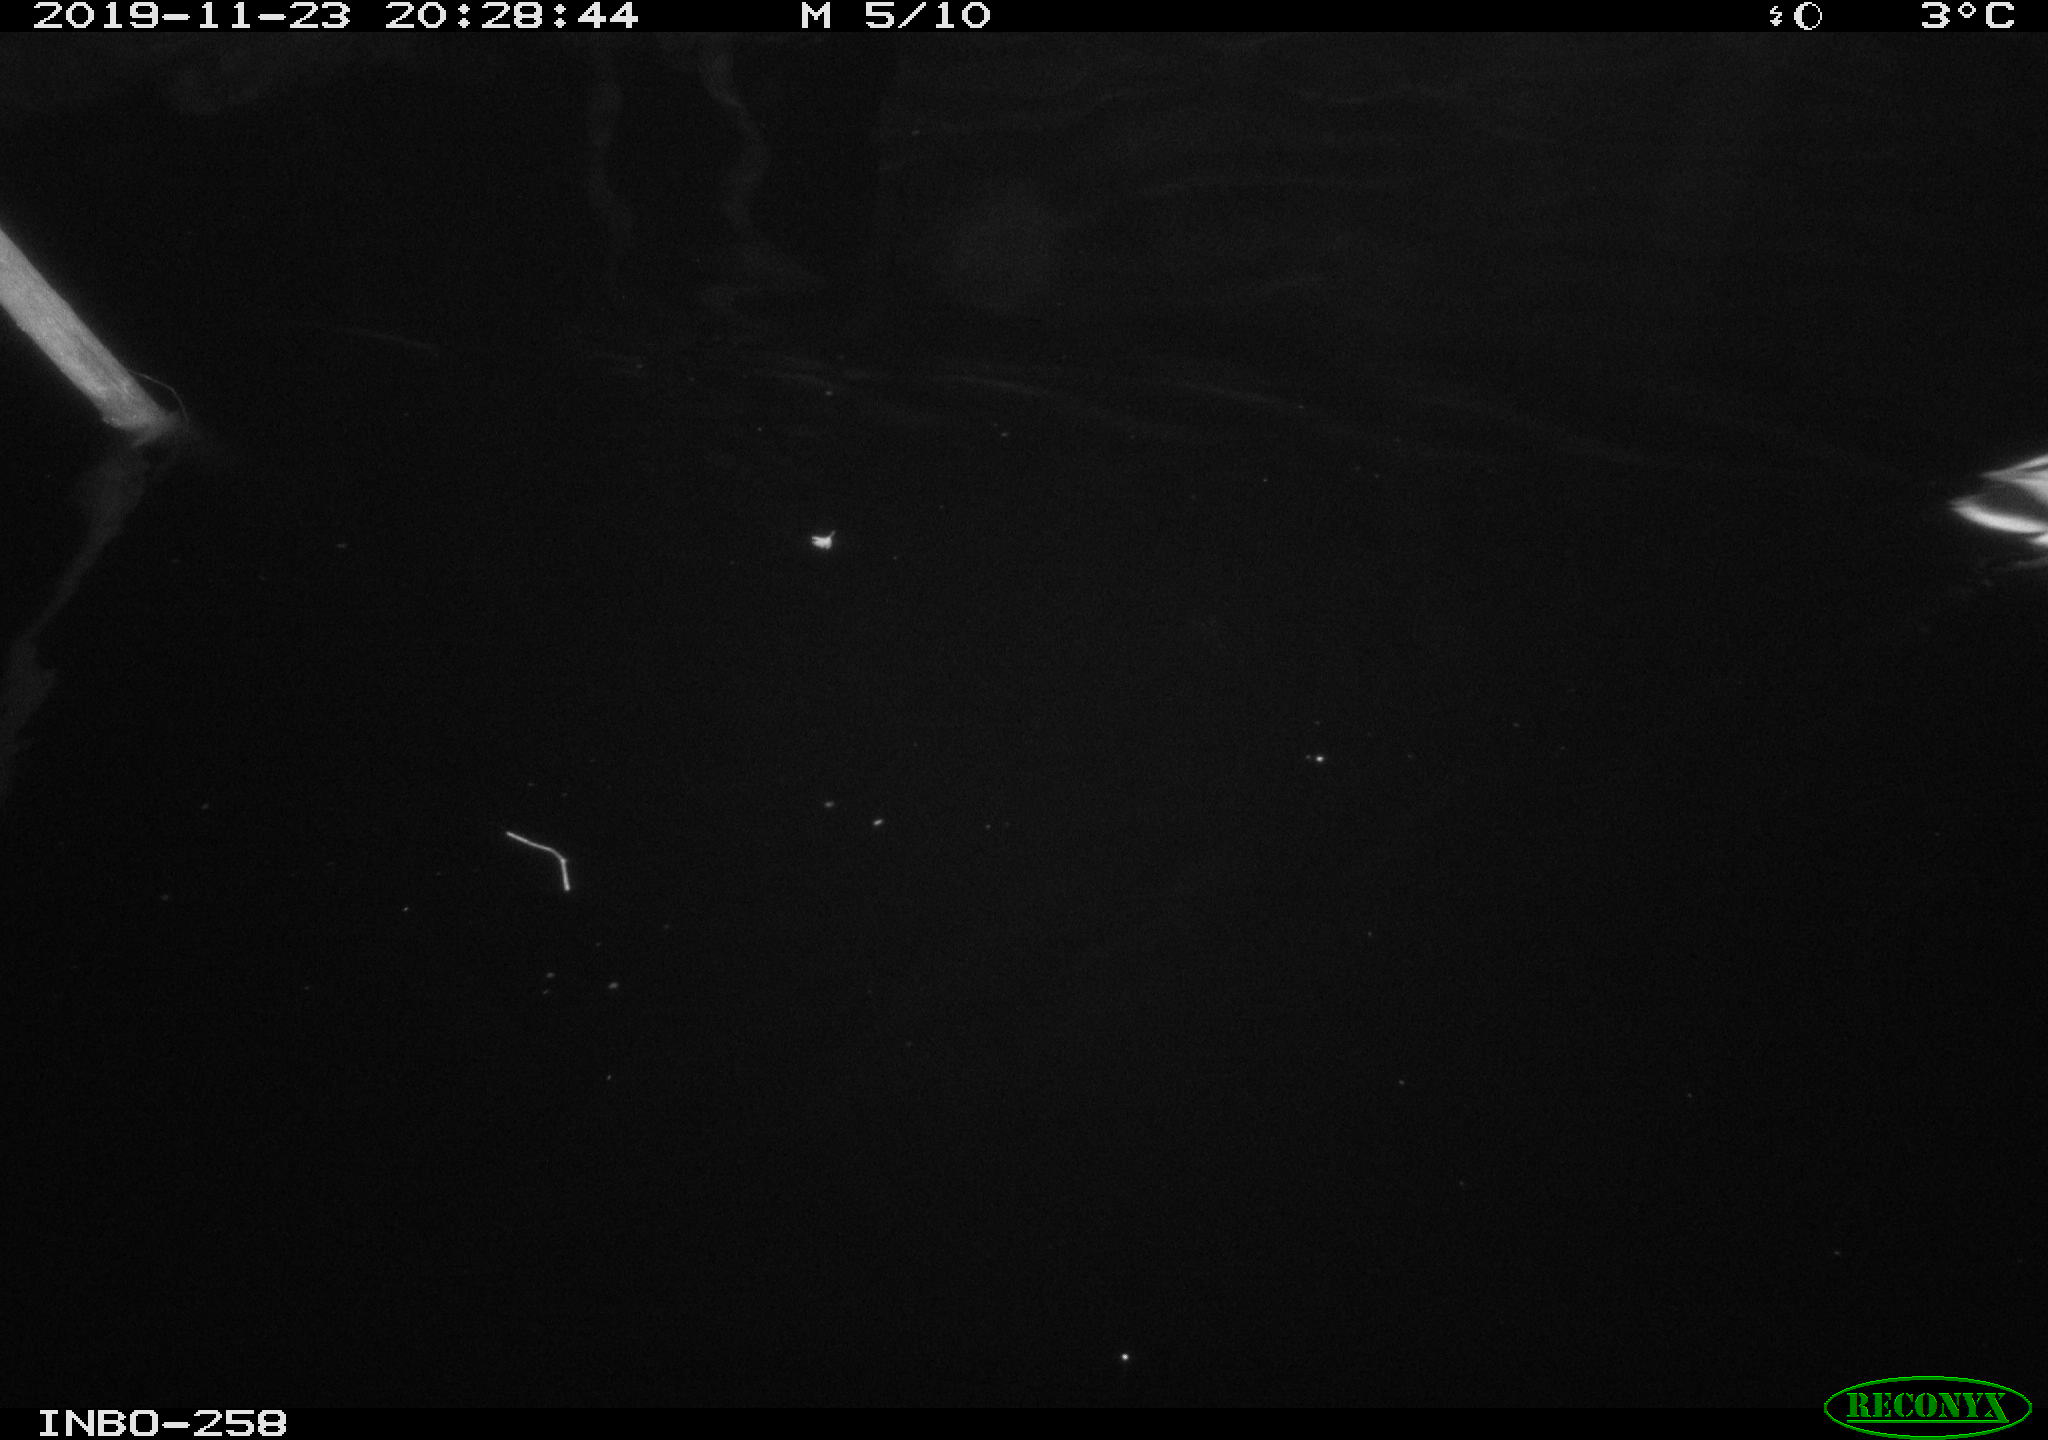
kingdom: Animalia
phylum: Chordata
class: Aves
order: Anseriformes
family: Anatidae
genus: Anas
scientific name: Anas platyrhynchos
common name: Mallard
